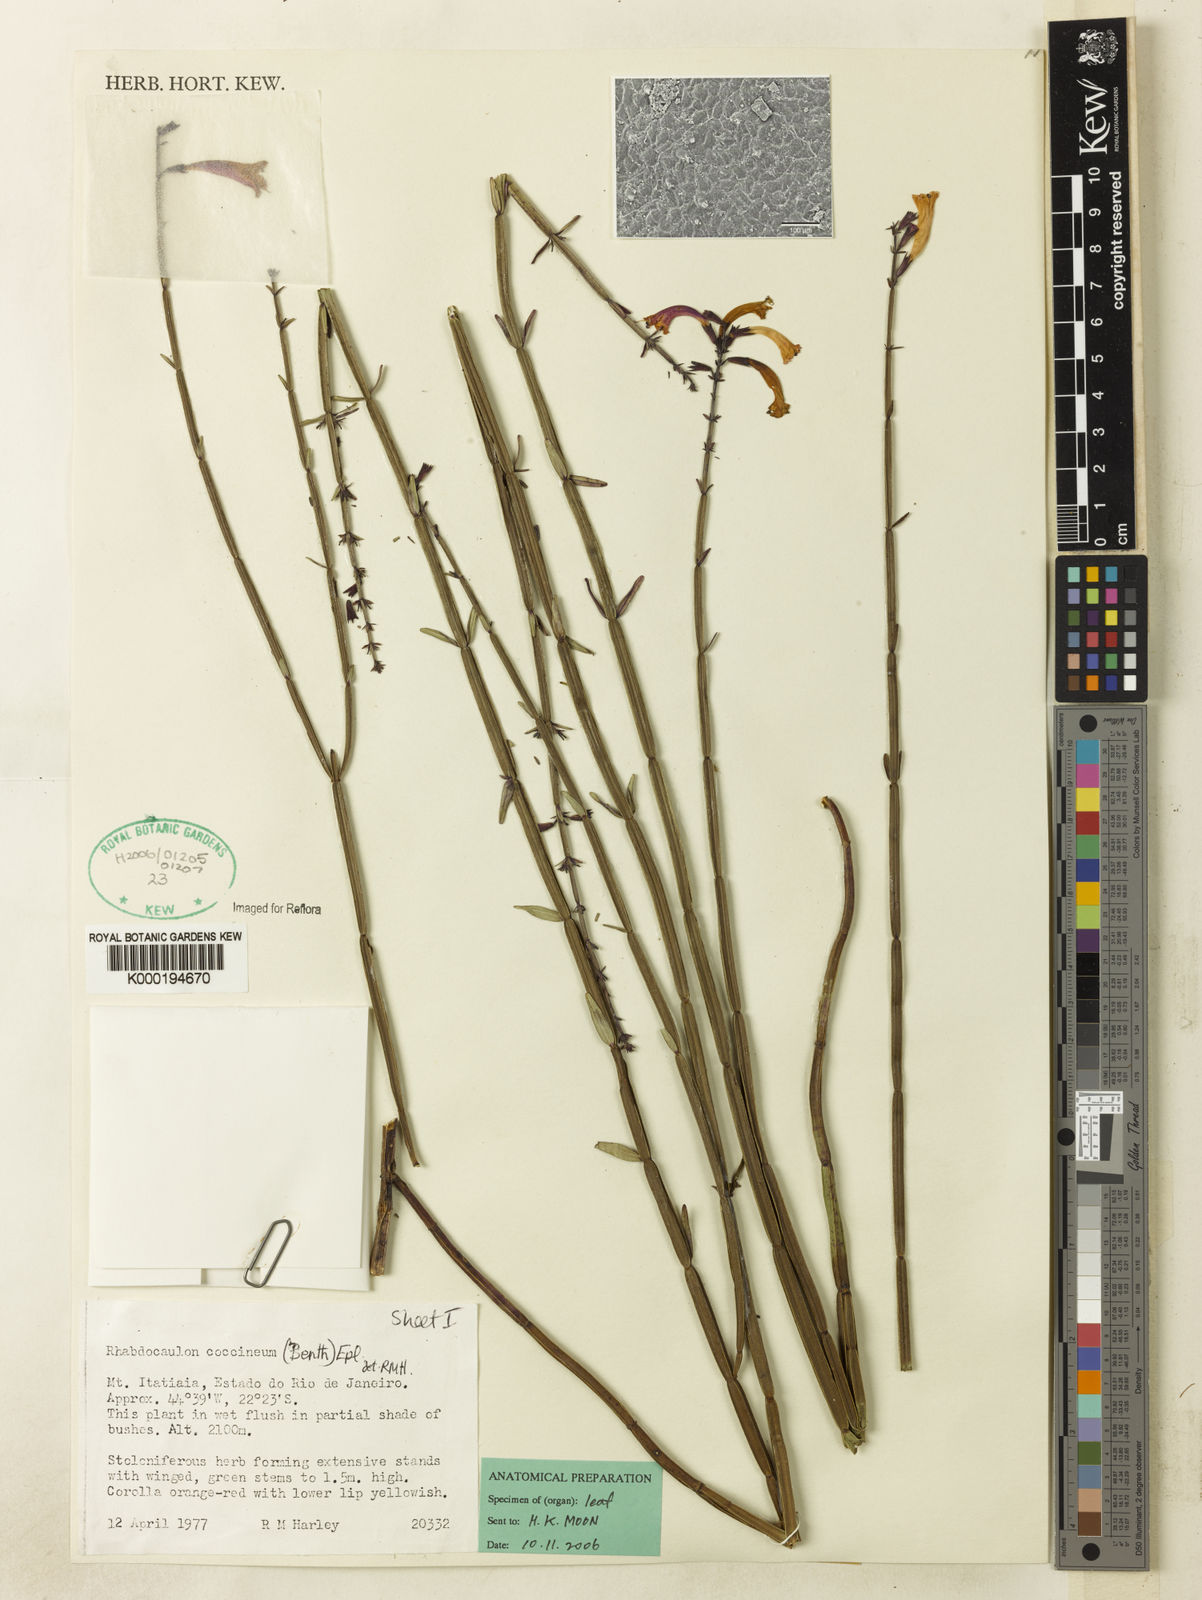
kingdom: Plantae
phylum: Tracheophyta
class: Magnoliopsida
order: Lamiales
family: Lamiaceae
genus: Rhabdocaulon
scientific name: Rhabdocaulon coccineum
